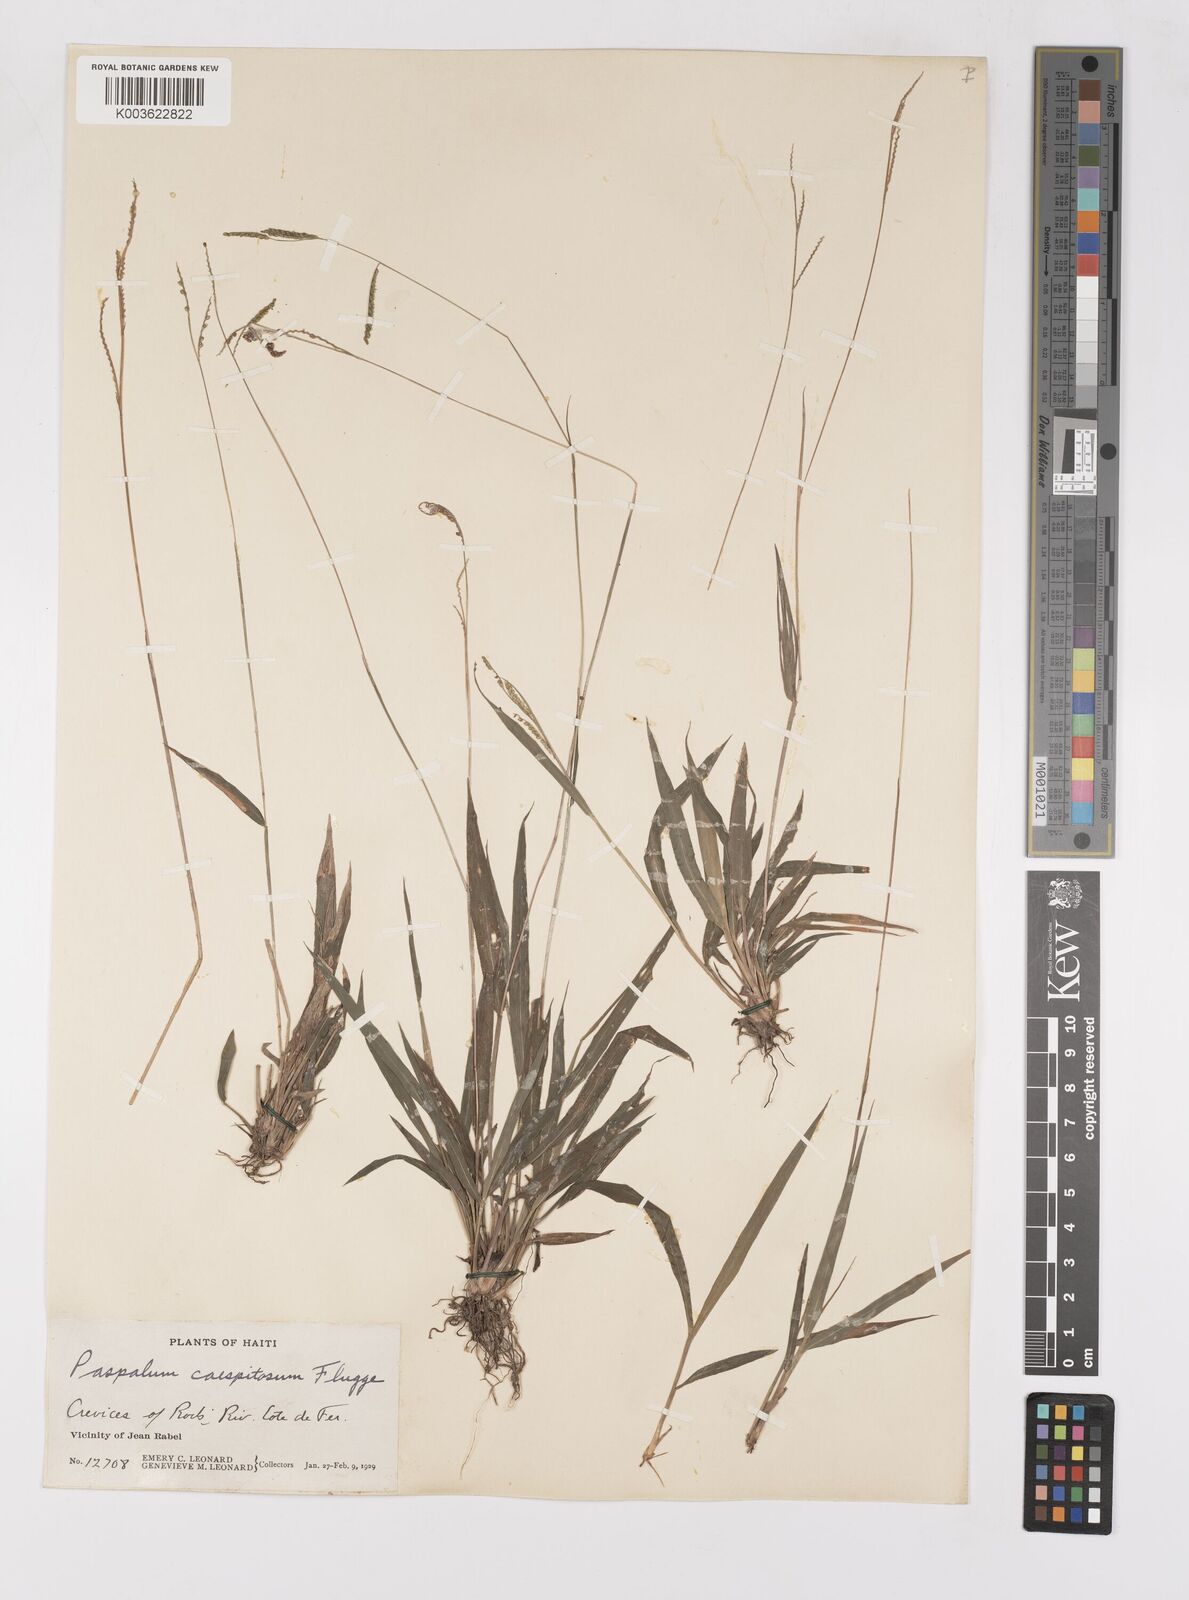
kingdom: Plantae
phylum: Tracheophyta
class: Liliopsida
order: Poales
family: Poaceae
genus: Paspalum
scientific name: Paspalum caespitosum
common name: Blue crowngrass
